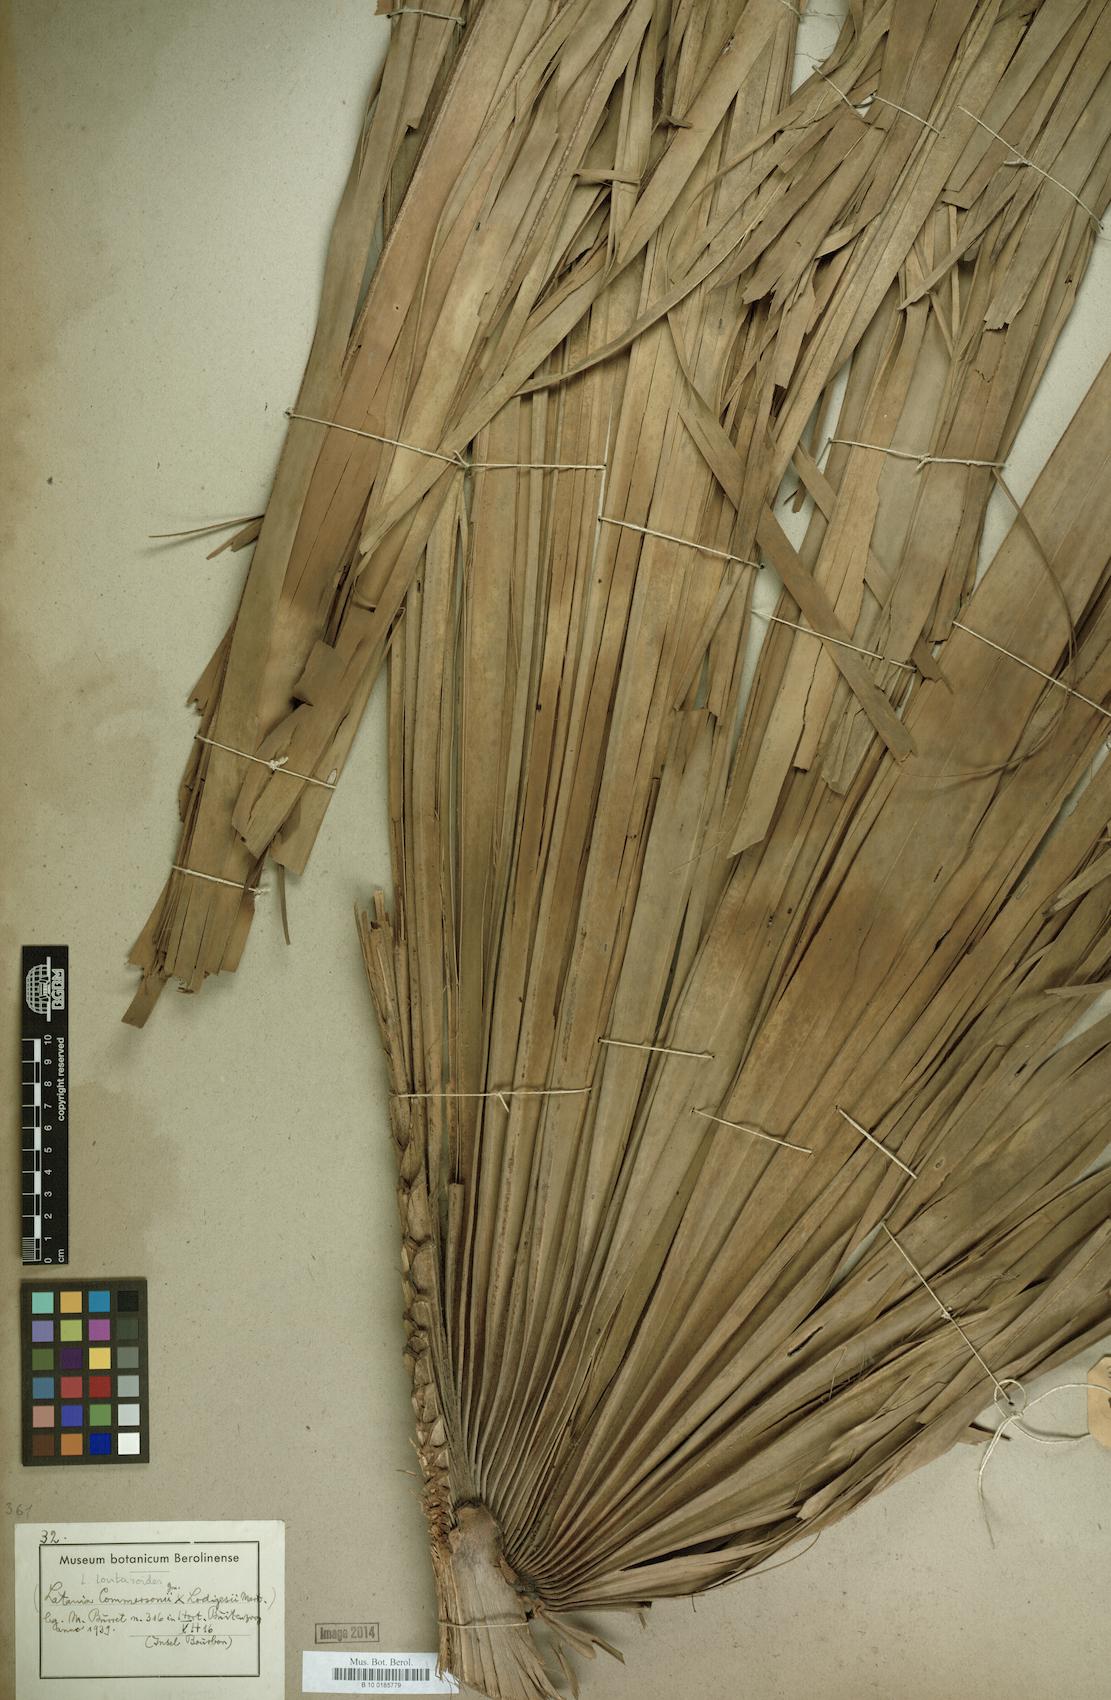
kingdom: Plantae
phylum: Tracheophyta
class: Liliopsida
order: Arecales
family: Arecaceae
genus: Latania
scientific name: Latania lontaroides
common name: Red latan
